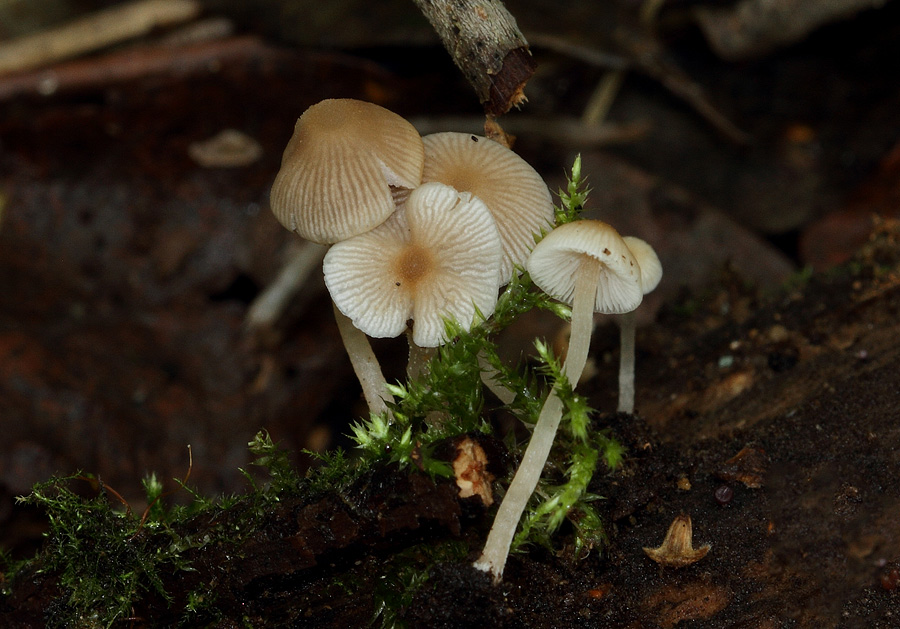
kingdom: Fungi
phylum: Basidiomycota
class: Agaricomycetes
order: Agaricales
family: Psathyrellaceae
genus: Psathyrella
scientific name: Psathyrella pygmaea
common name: dværg-mørkhat
